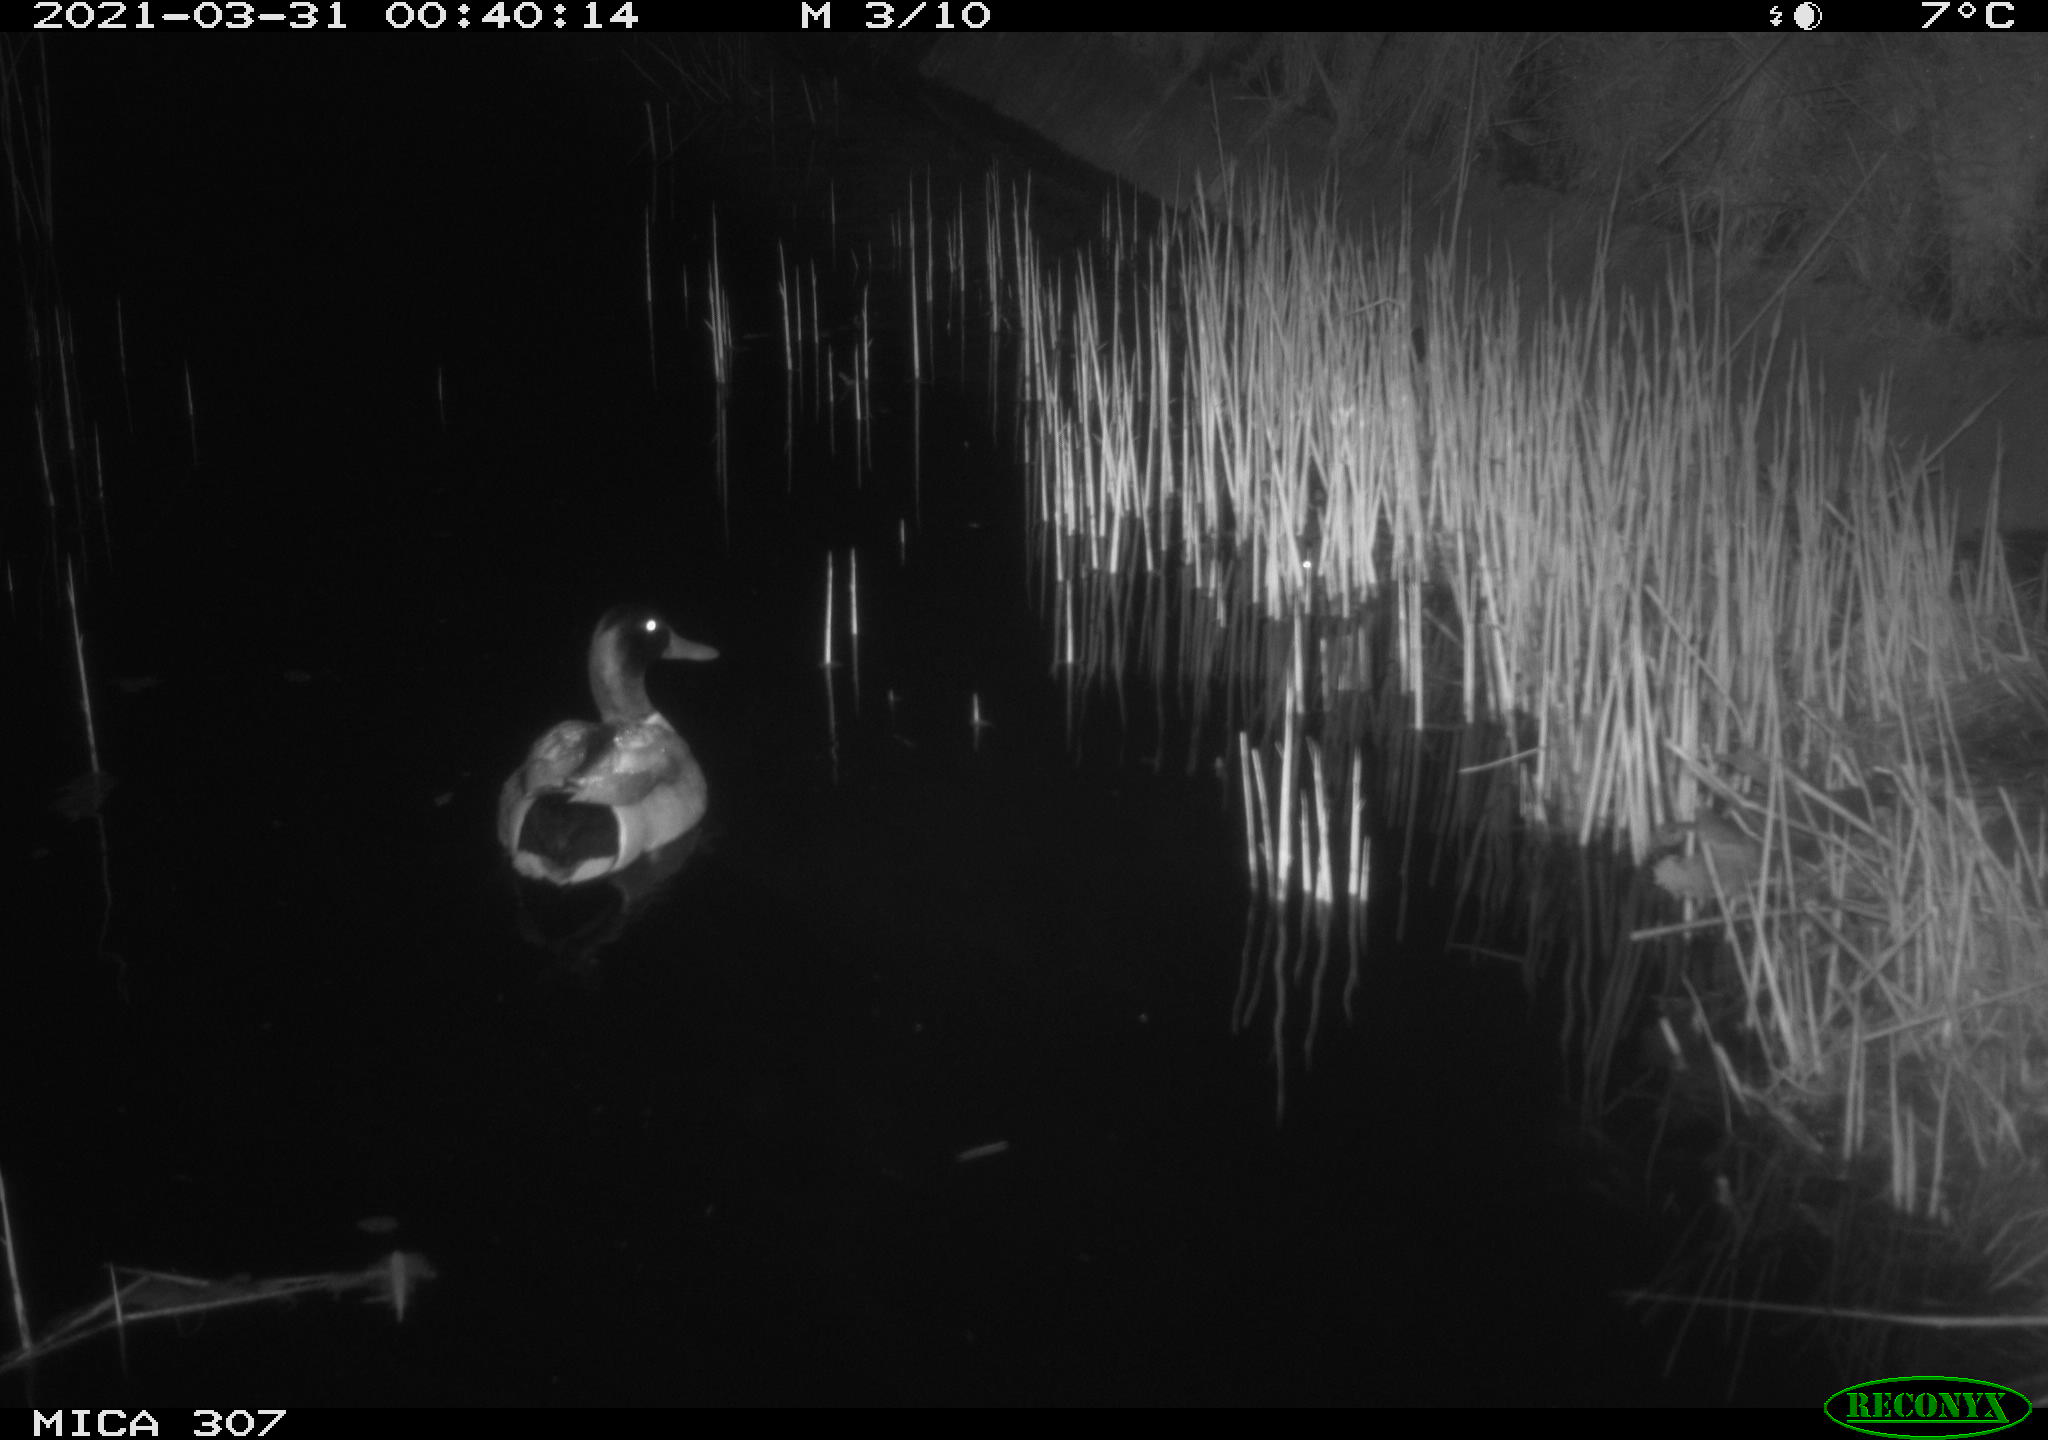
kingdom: Animalia
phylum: Chordata
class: Aves
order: Anseriformes
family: Anatidae
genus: Anas
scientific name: Anas platyrhynchos
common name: Mallard
